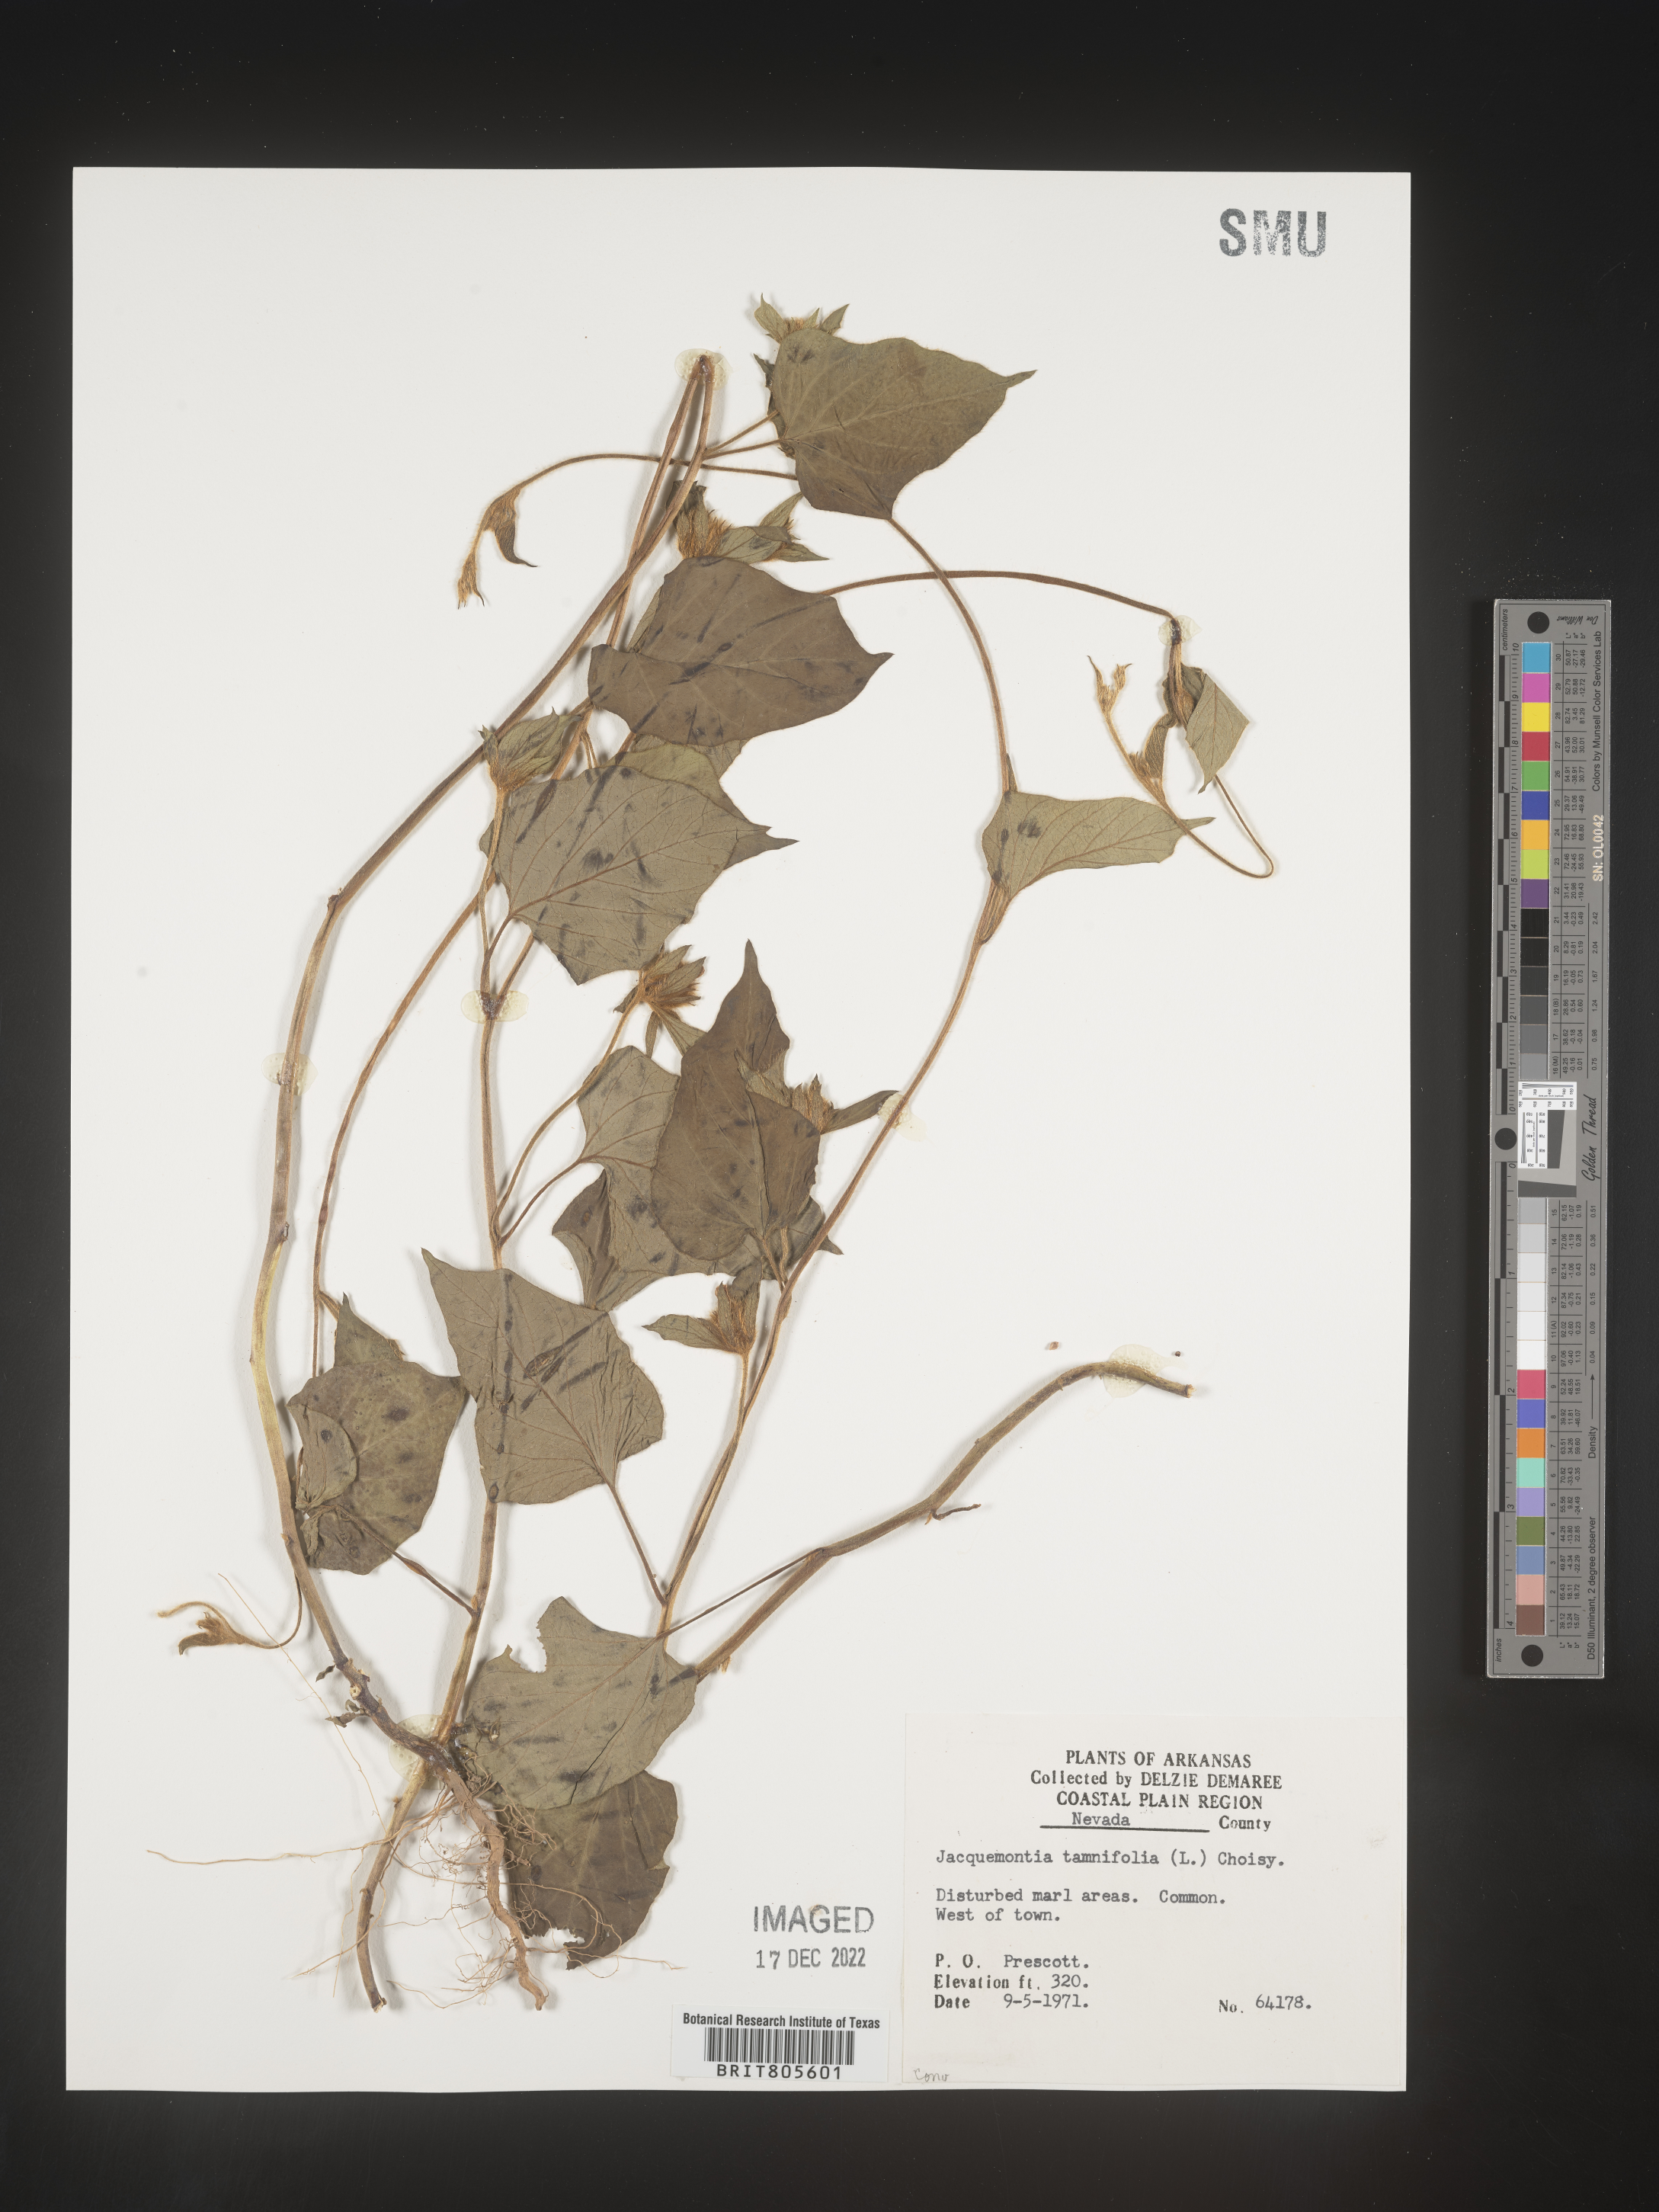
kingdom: Plantae
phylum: Tracheophyta
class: Magnoliopsida
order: Solanales
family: Convolvulaceae
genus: Jacquemontia
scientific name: Jacquemontia tamnifolia
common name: Hairy clustervine
